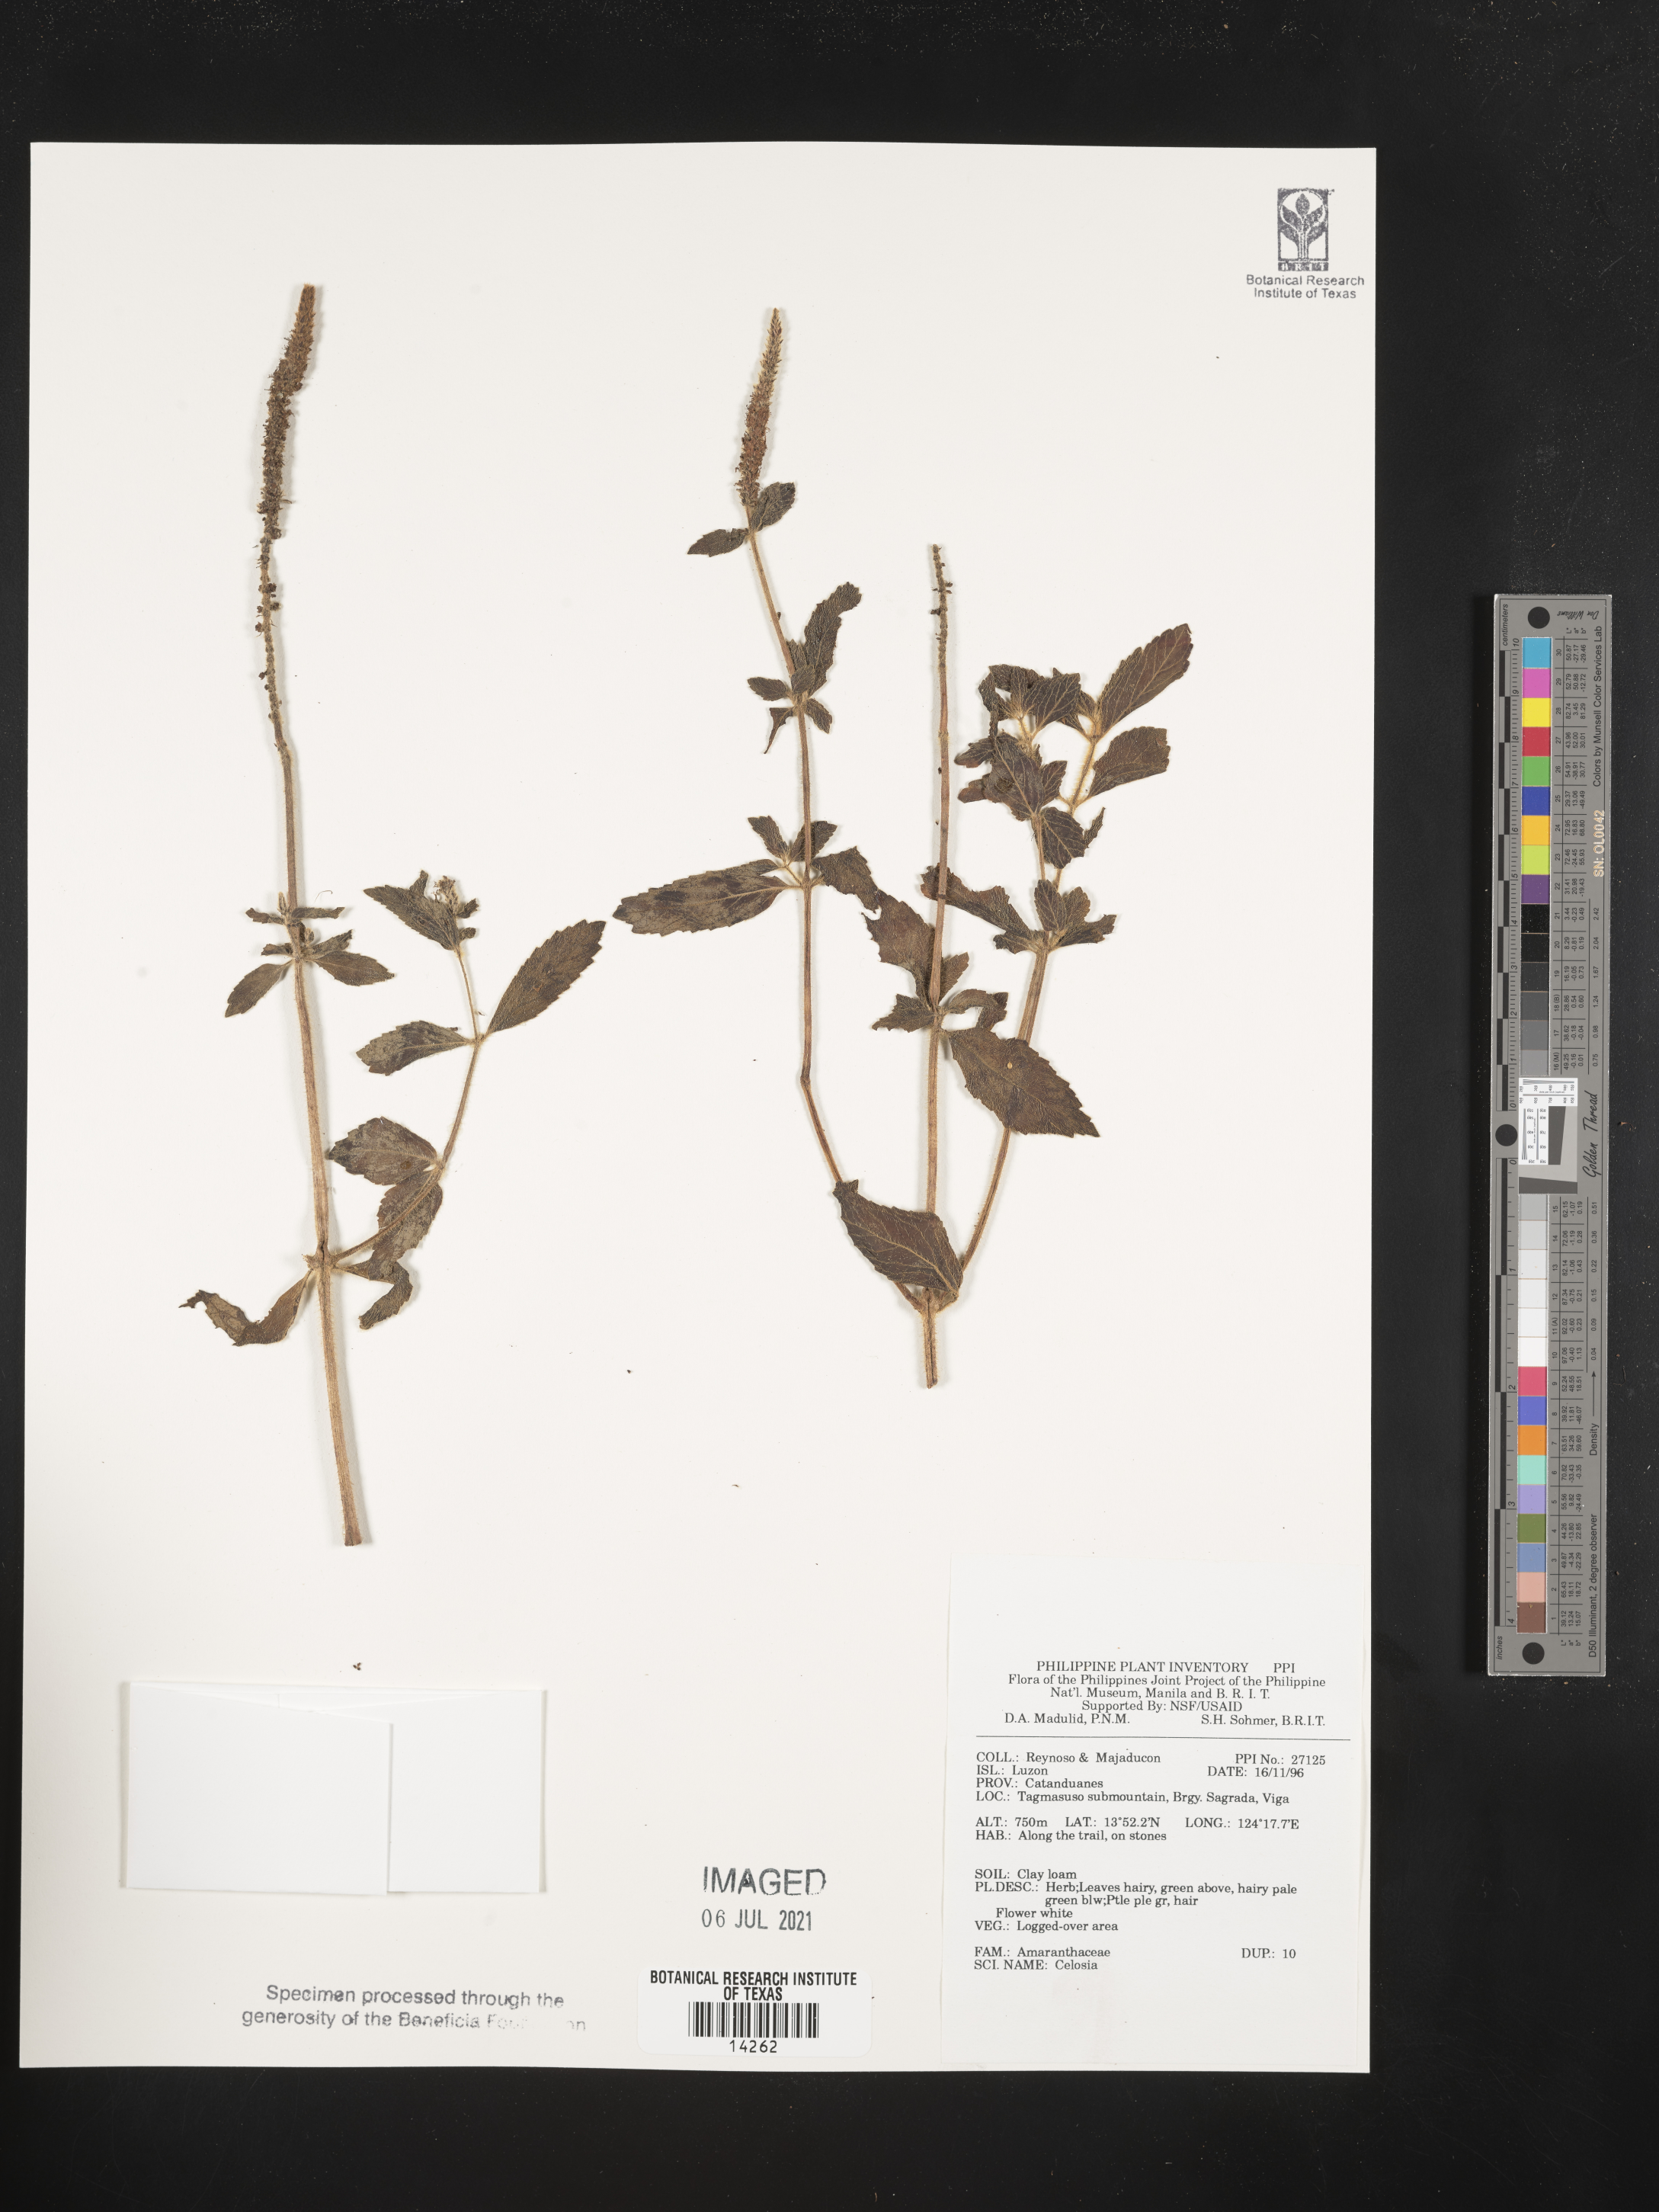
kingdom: Plantae
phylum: Tracheophyta
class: Magnoliopsida
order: Caryophyllales
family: Amaranthaceae
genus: Celosia
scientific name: Celosia
